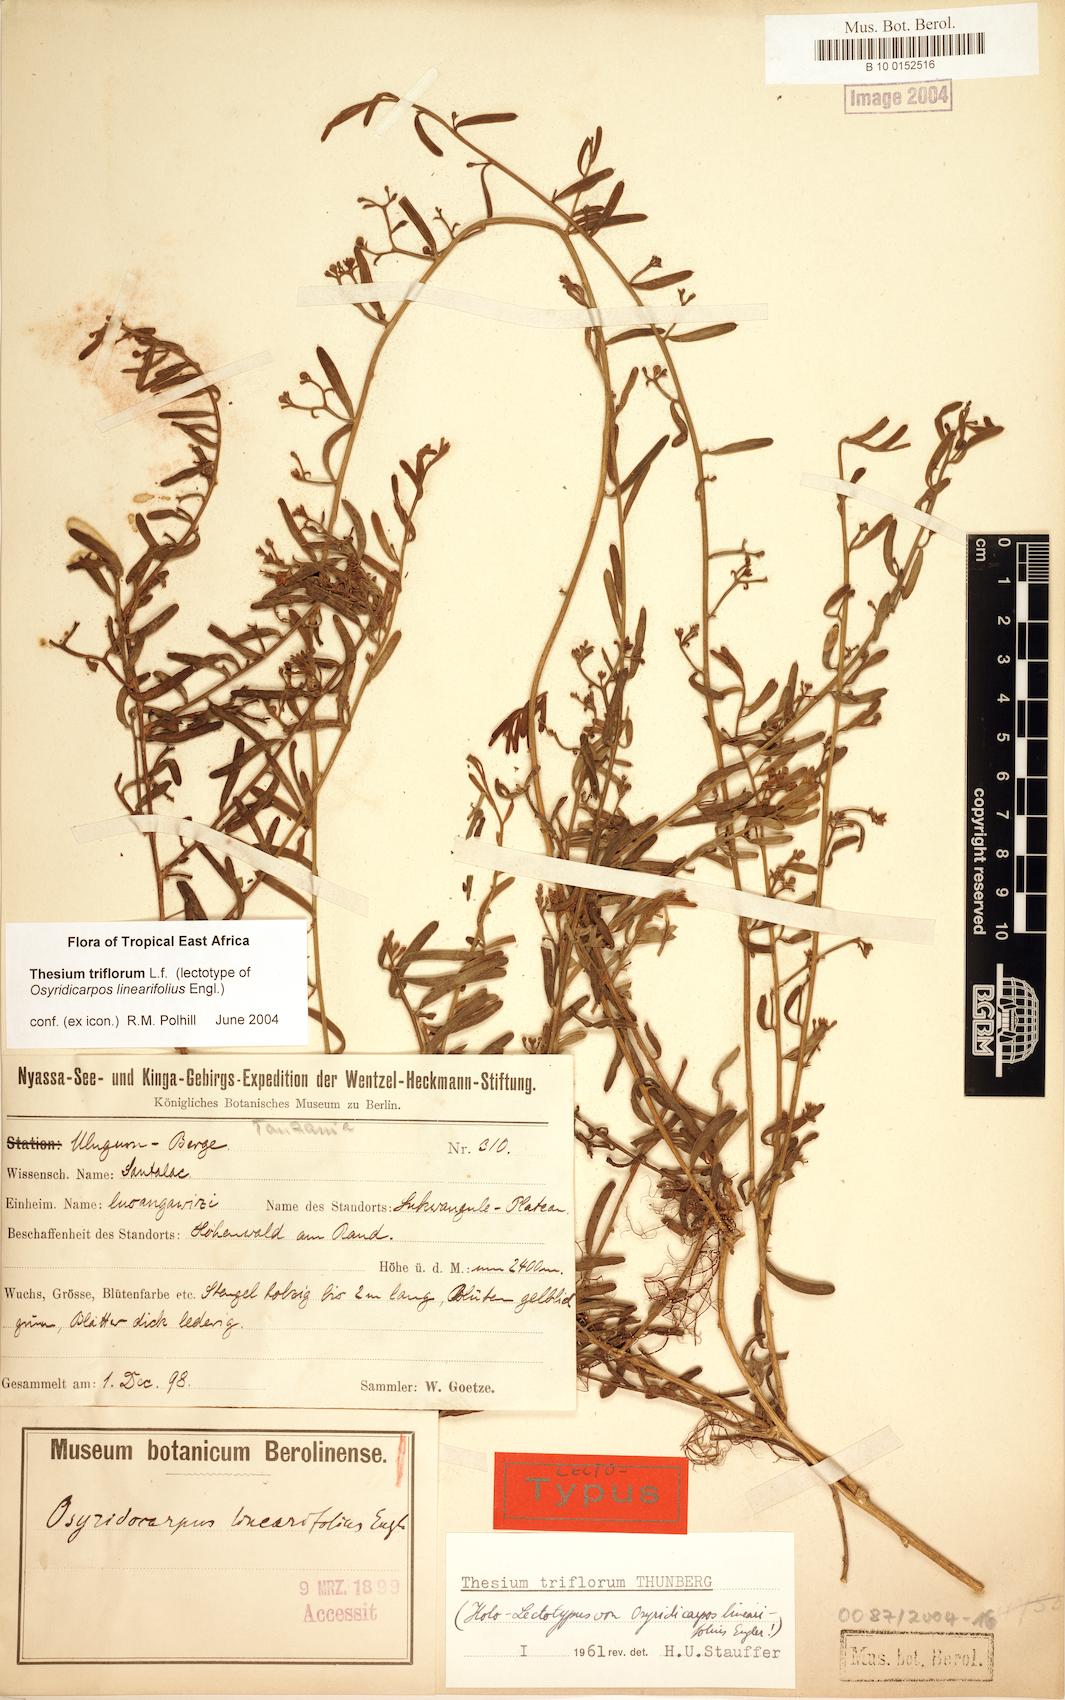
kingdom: Plantae
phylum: Tracheophyta
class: Magnoliopsida
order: Santalales
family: Thesiaceae
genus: Thesium
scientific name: Thesium triflorum
